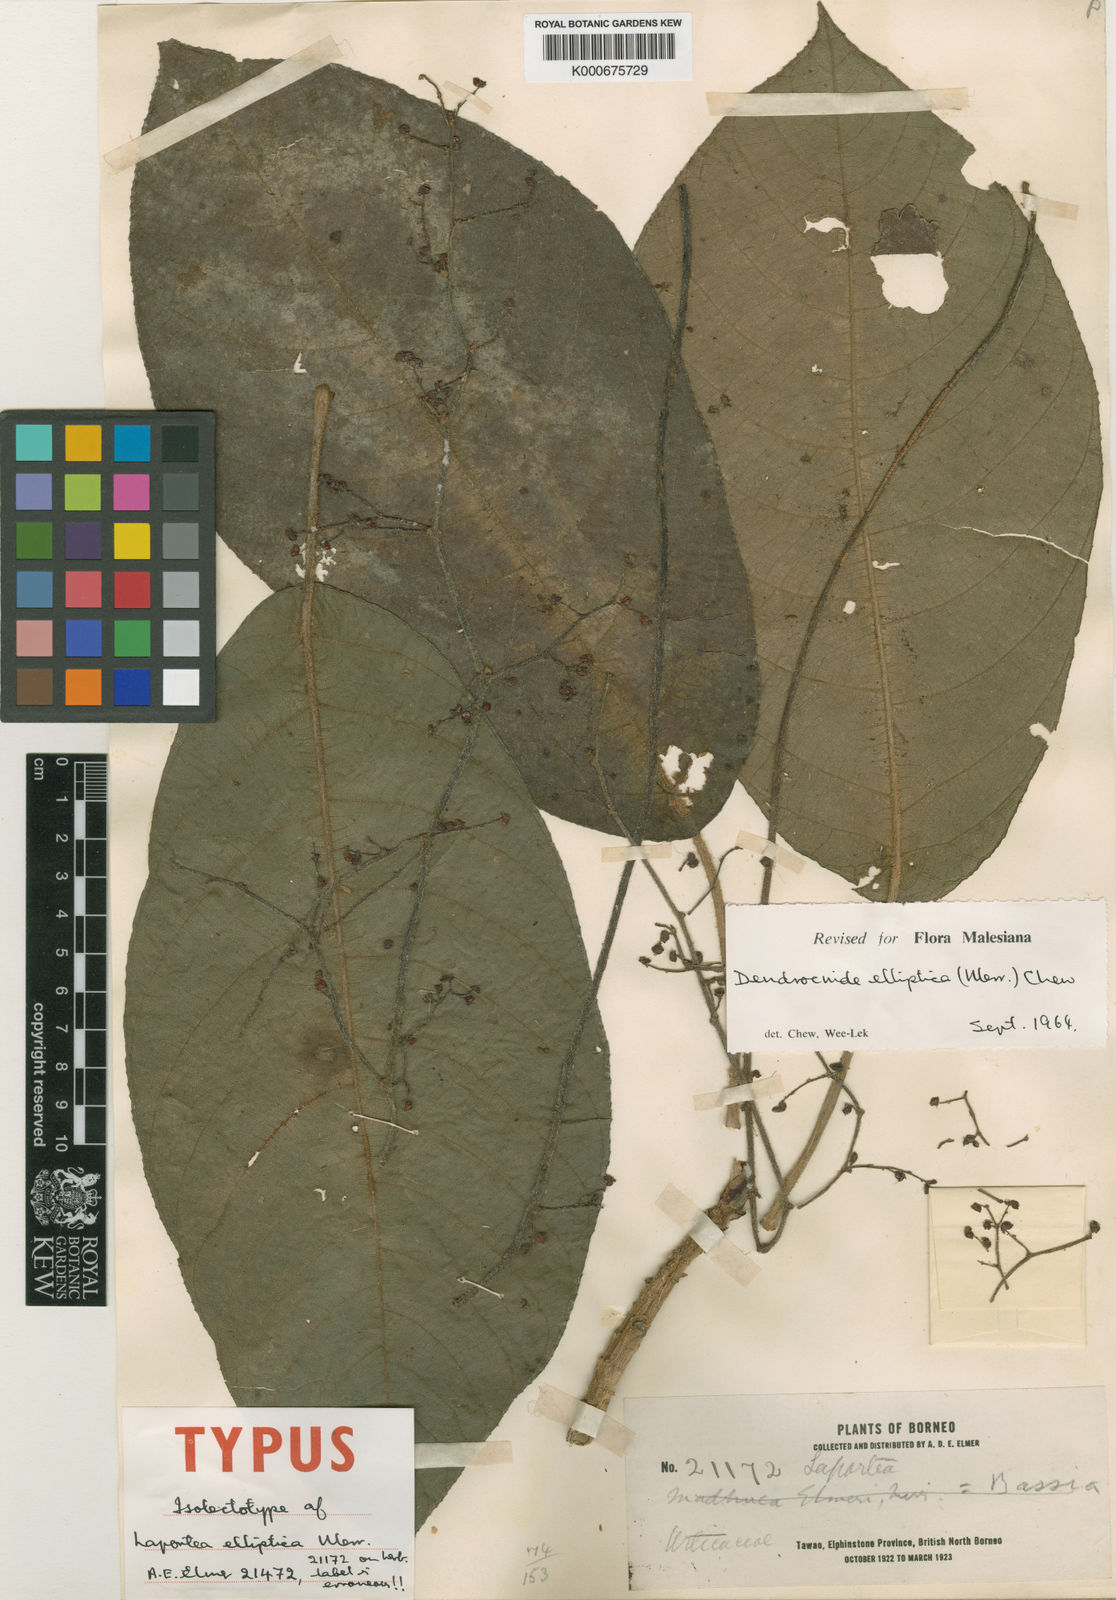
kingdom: Plantae
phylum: Tracheophyta
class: Magnoliopsida
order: Rosales
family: Urticaceae
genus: Dendrocnide
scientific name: Dendrocnide elliptica
